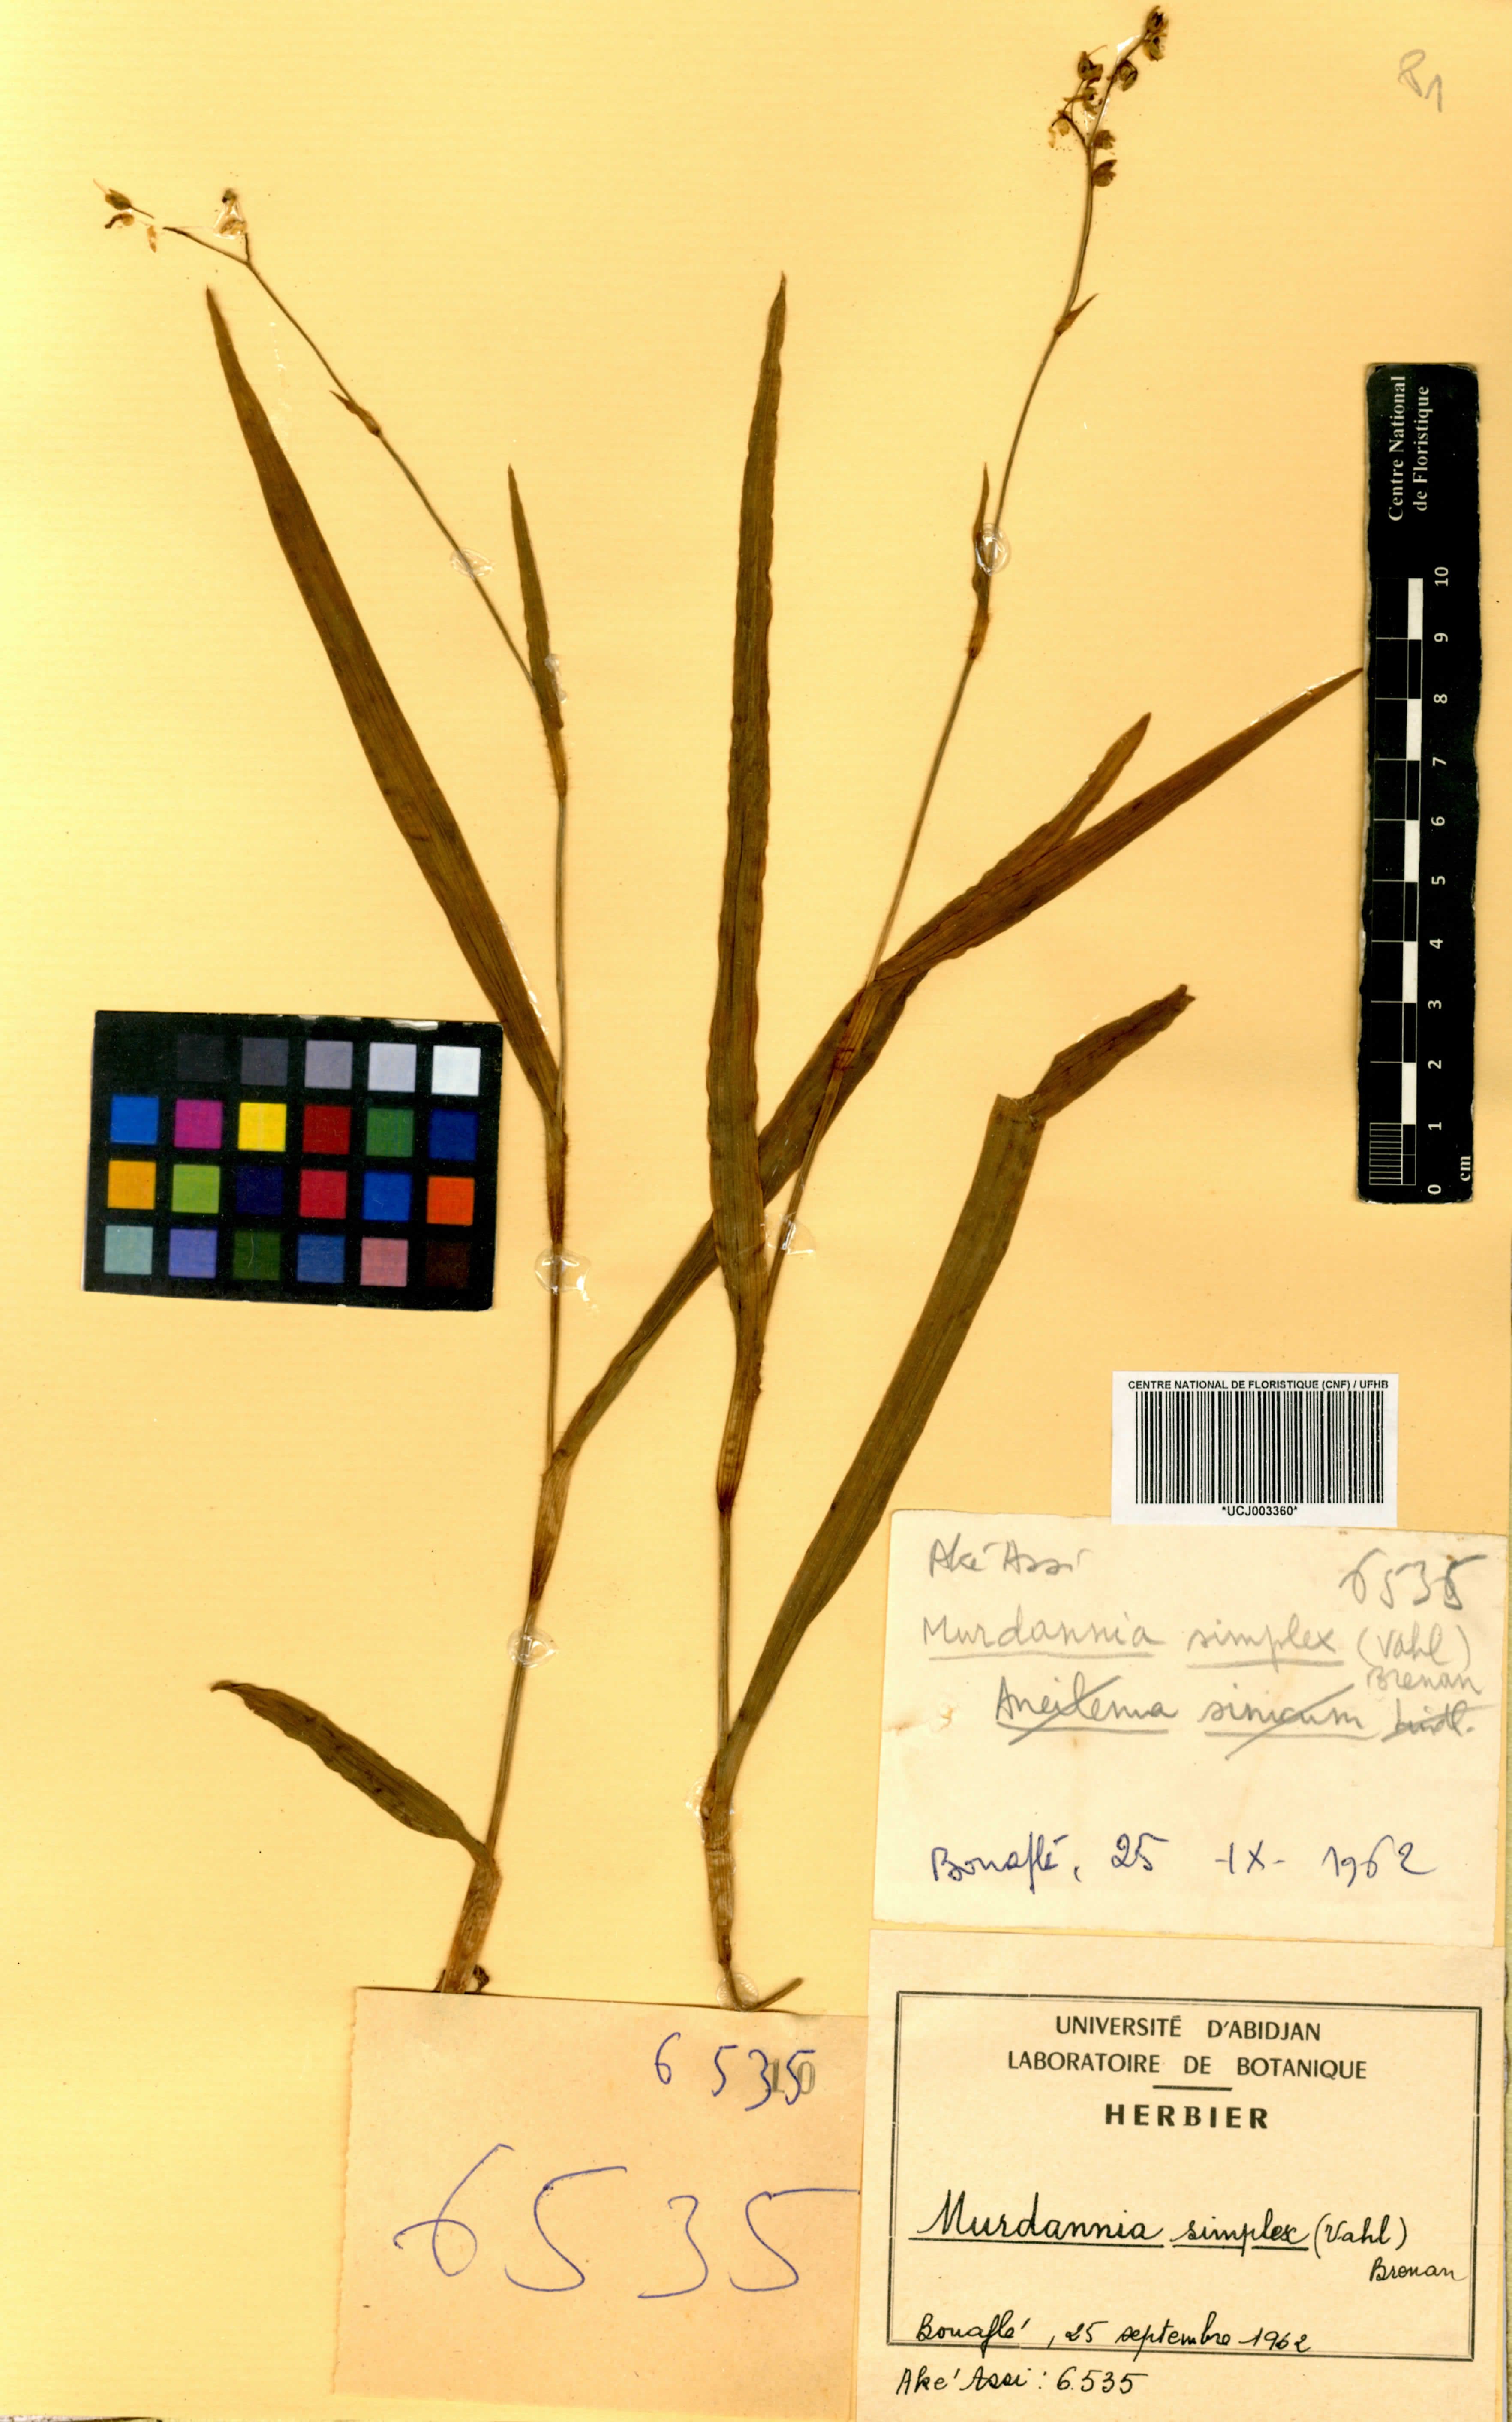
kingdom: Plantae
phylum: Tracheophyta
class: Liliopsida
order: Commelinales
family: Commelinaceae
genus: Murdannia
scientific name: Murdannia simplex
